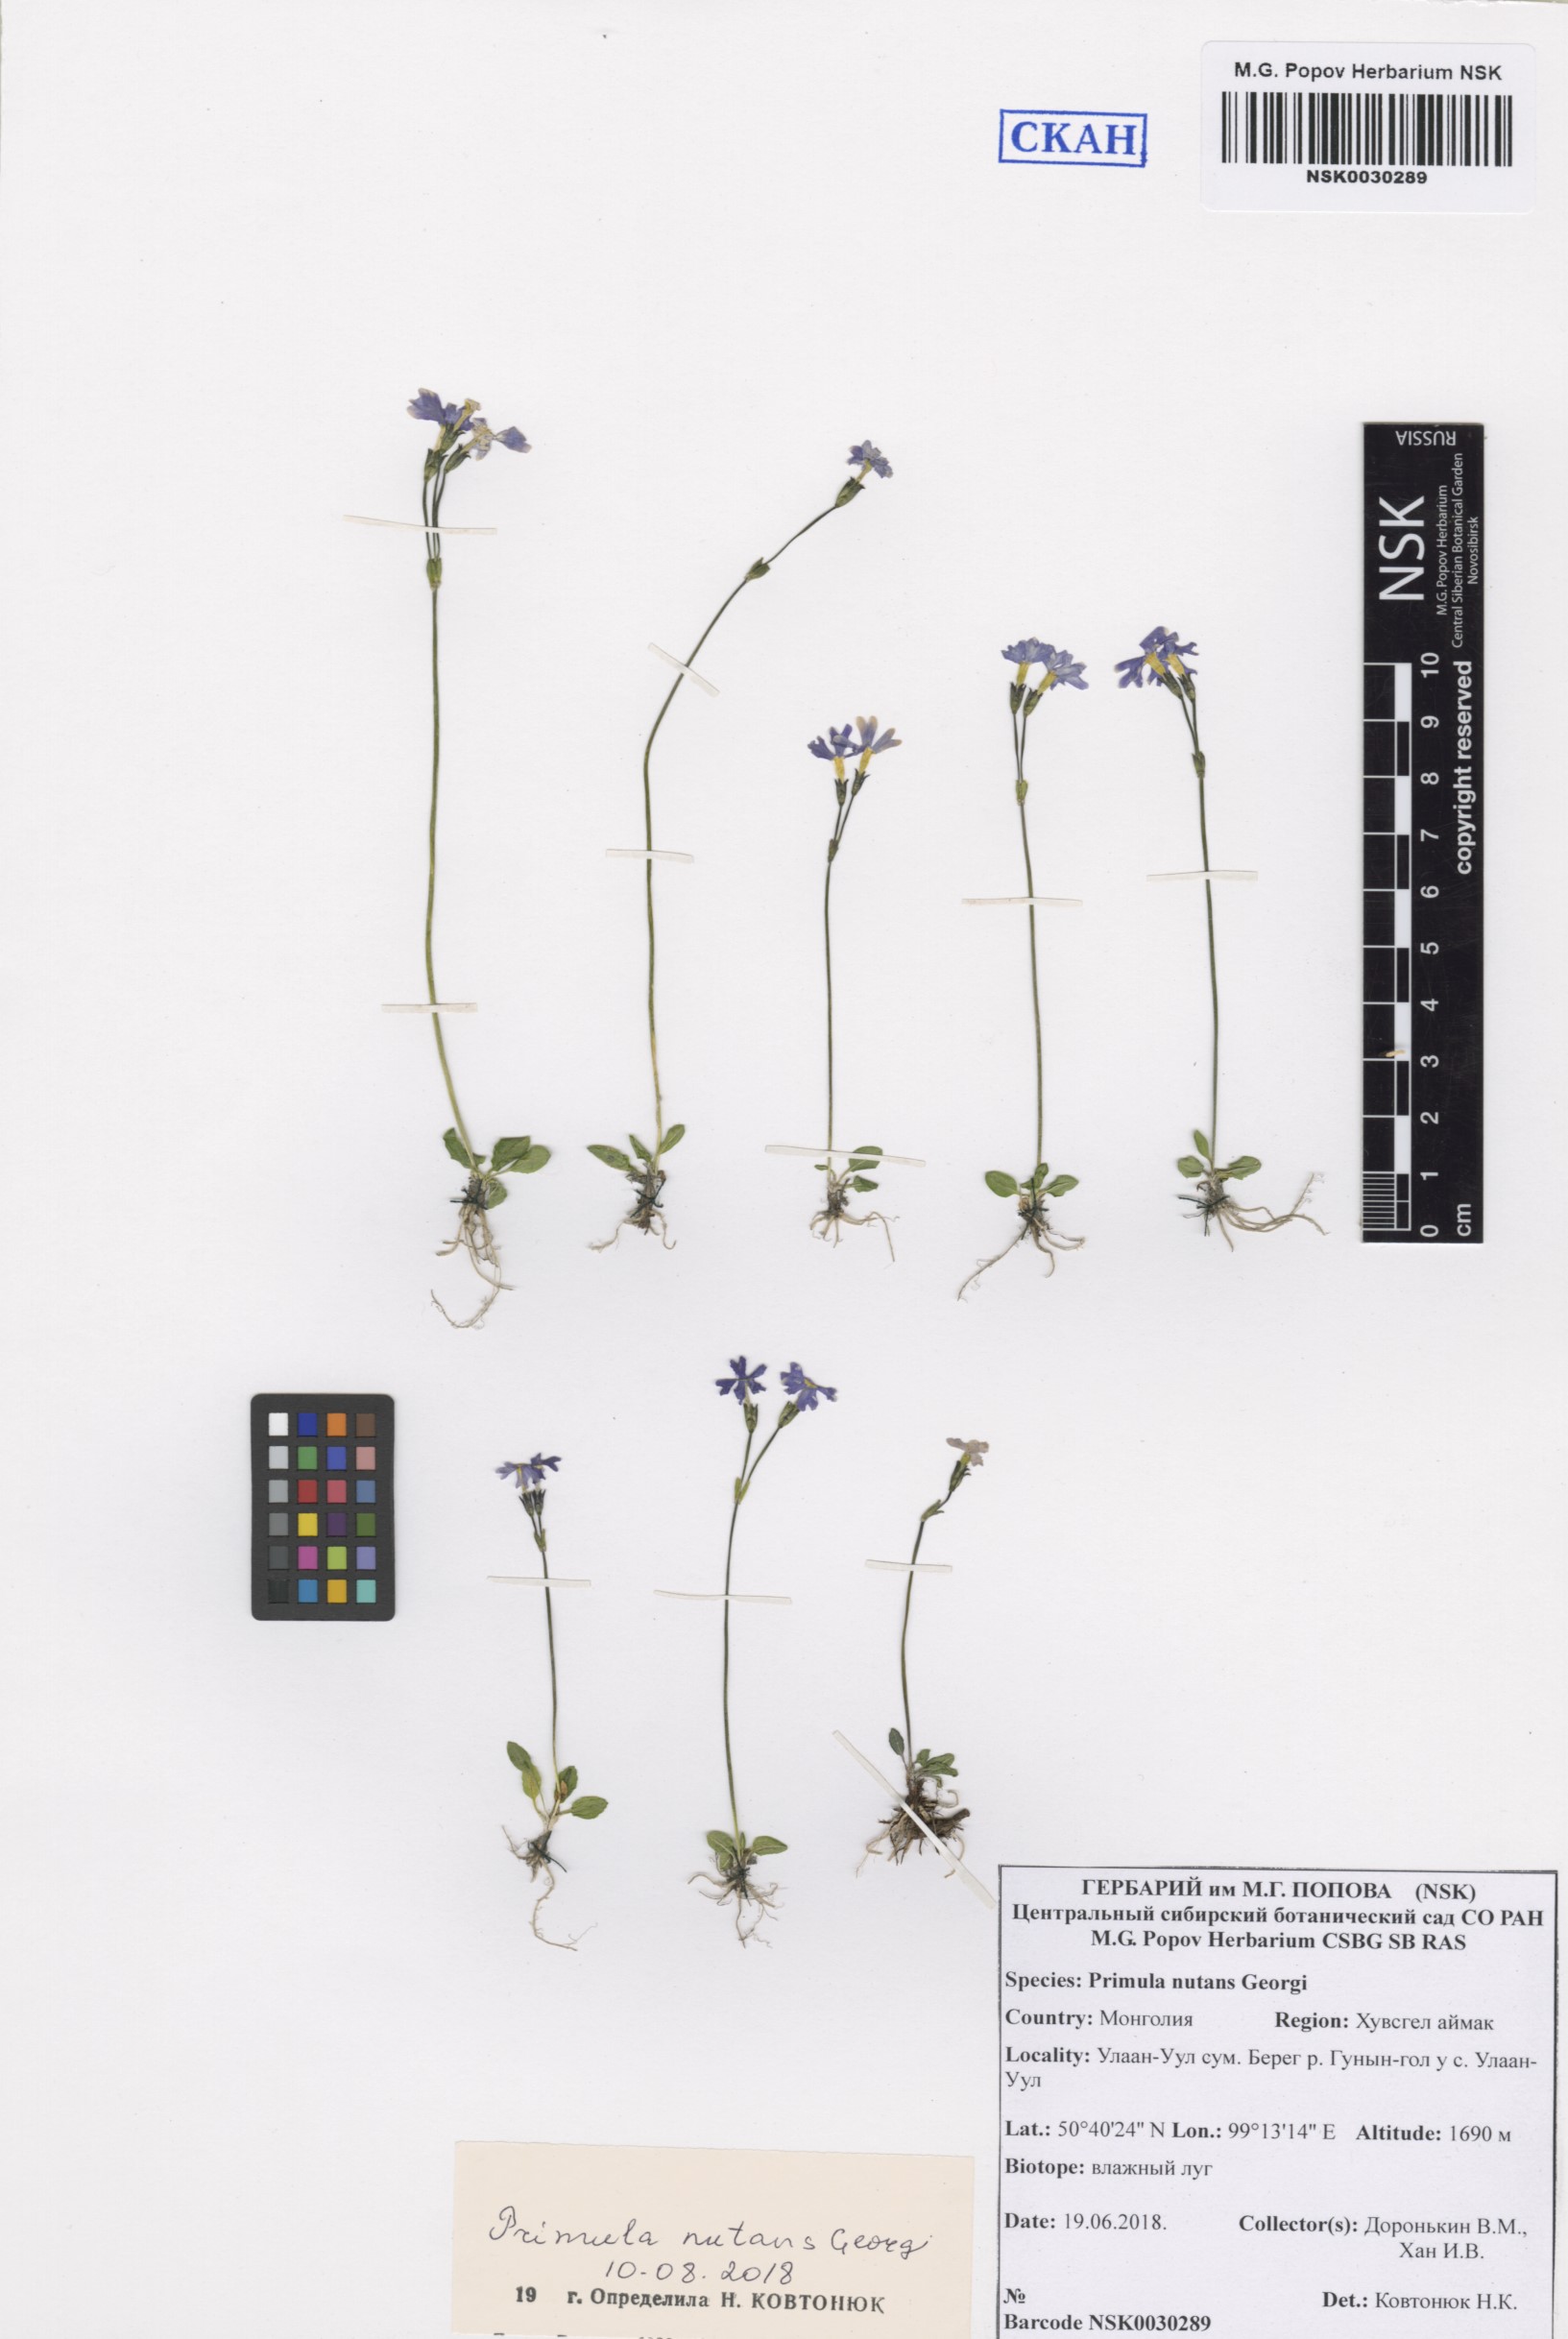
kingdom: Plantae
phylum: Tracheophyta
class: Magnoliopsida
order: Ericales
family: Primulaceae
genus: Primula
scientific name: Primula nutans
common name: Siberian primrose
